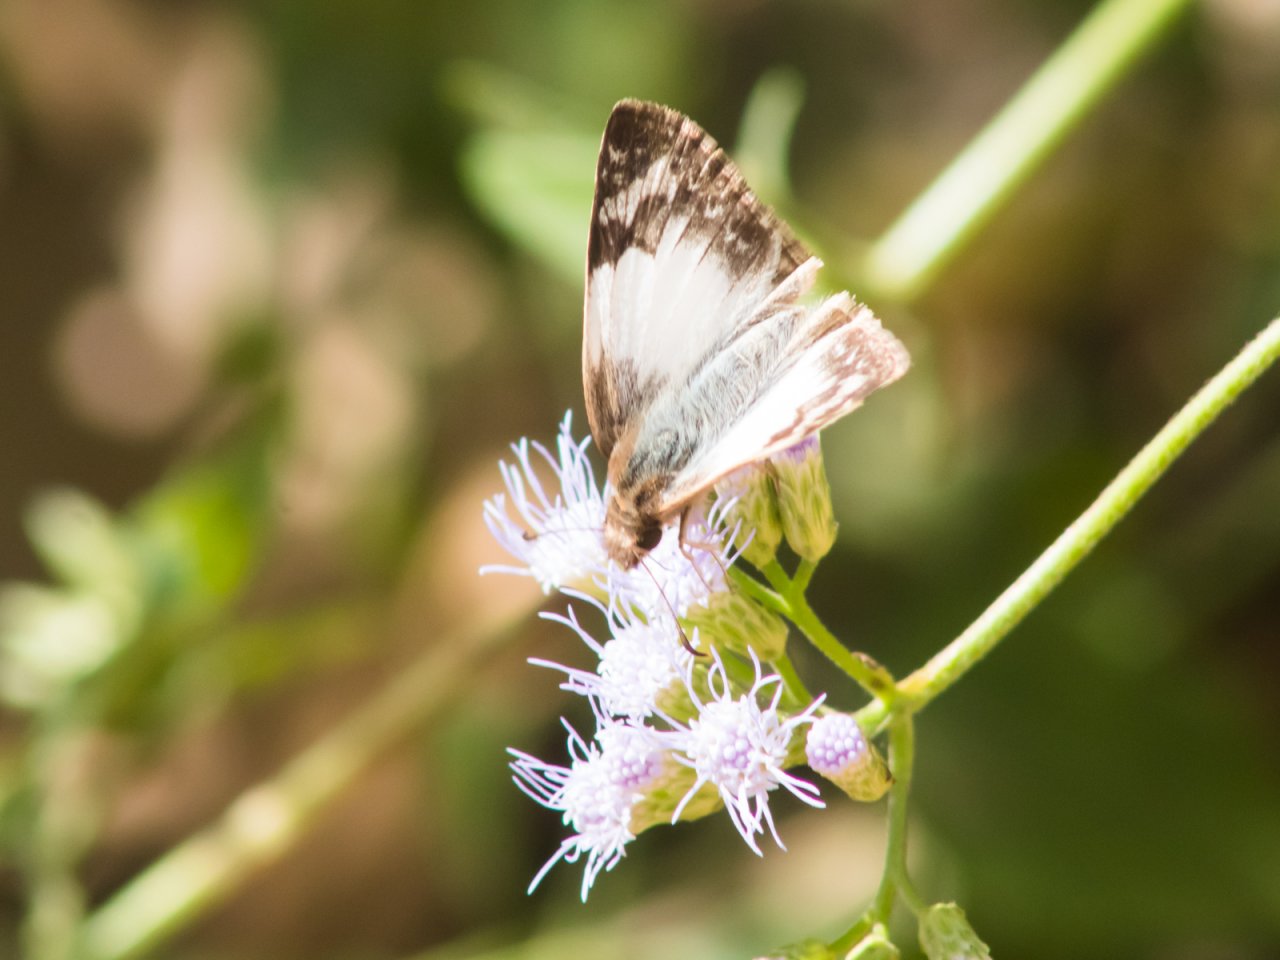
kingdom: Animalia
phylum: Arthropoda
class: Insecta
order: Lepidoptera
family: Hesperiidae
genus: Heliopetes
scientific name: Heliopetes laviana
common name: Laviana White-Skipper
